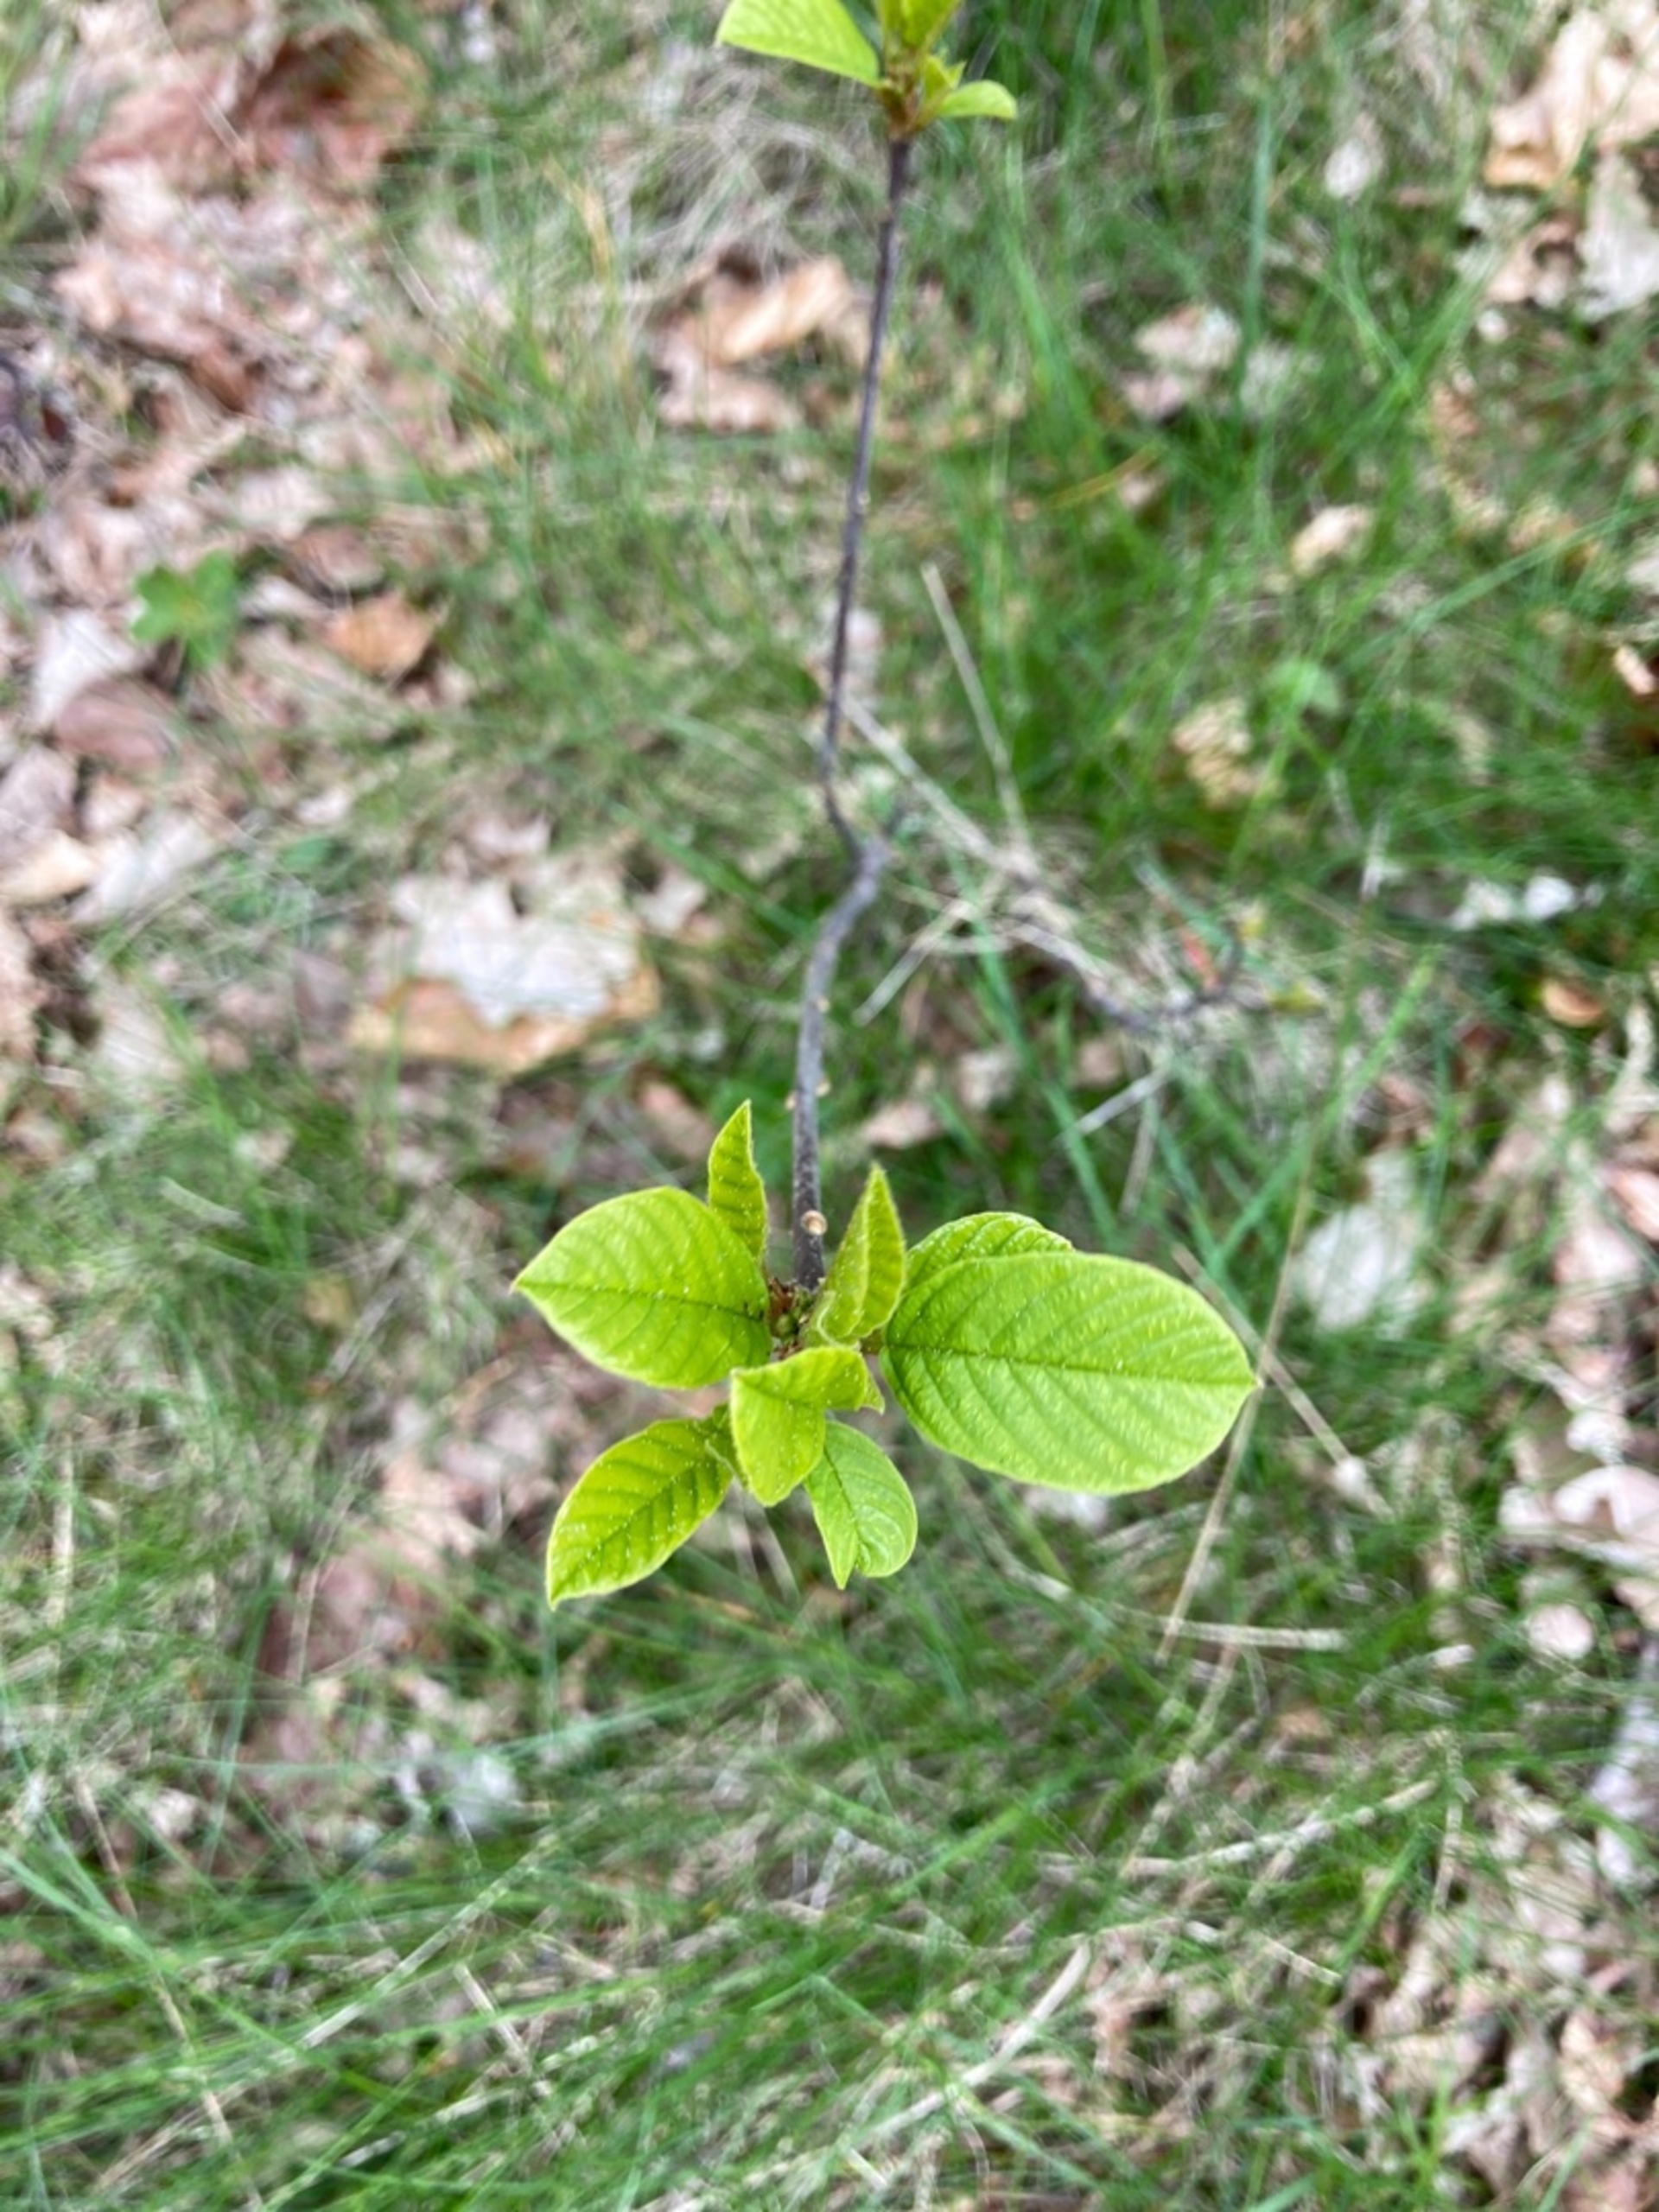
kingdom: Plantae
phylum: Tracheophyta
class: Magnoliopsida
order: Rosales
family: Rhamnaceae
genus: Frangula
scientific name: Frangula alnus
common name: Tørst
